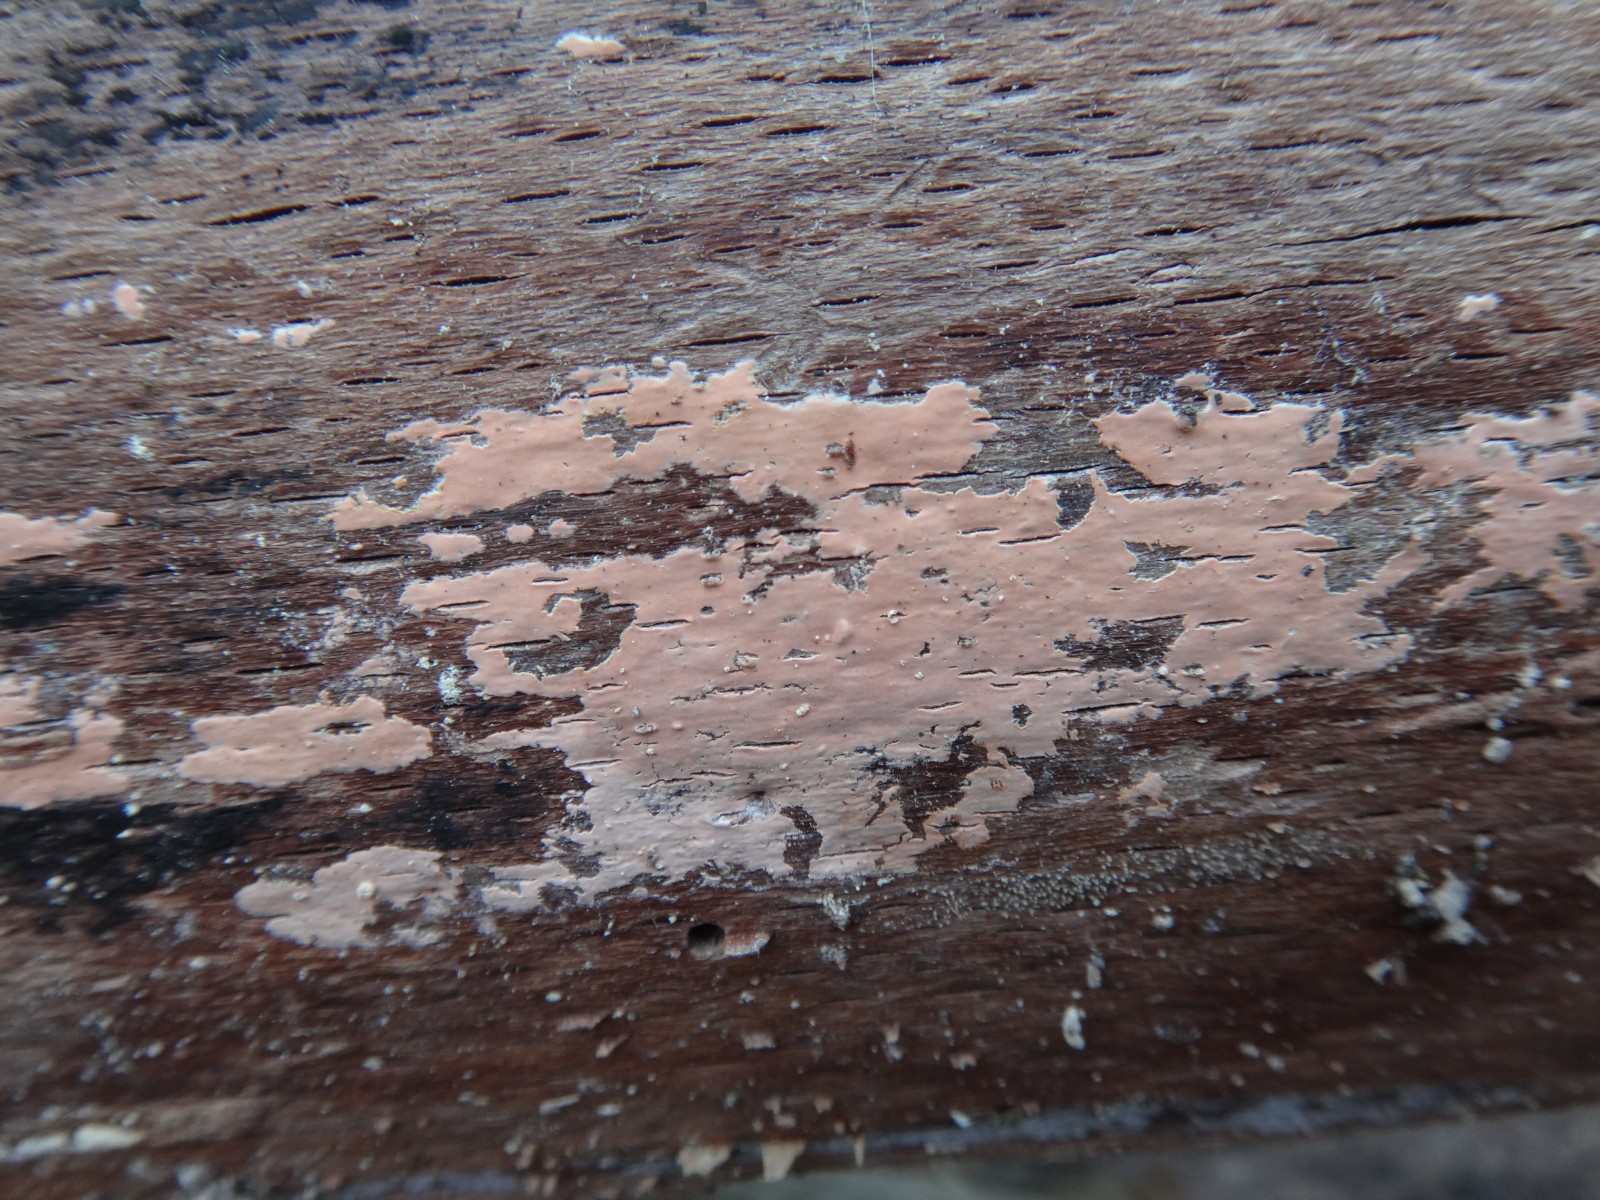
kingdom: Fungi
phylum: Basidiomycota
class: Agaricomycetes
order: Russulales
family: Peniophoraceae
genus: Peniophora
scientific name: Peniophora incarnata
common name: laksefarvet voksskind
